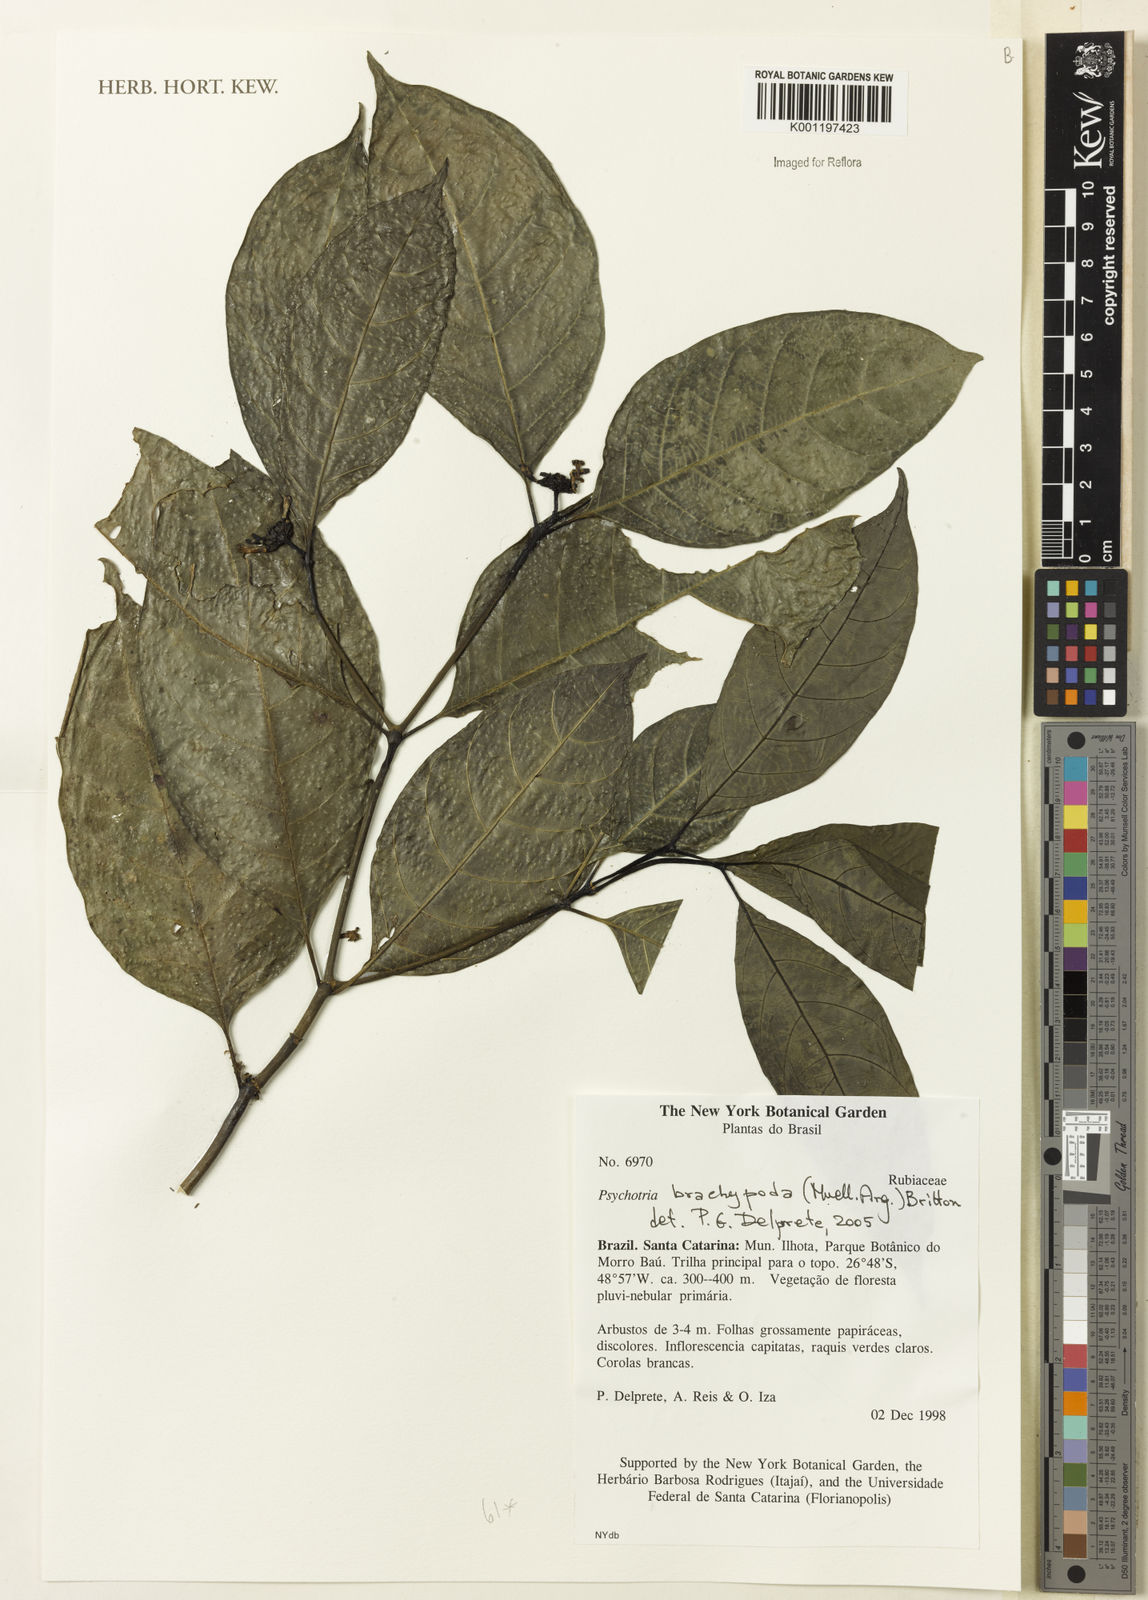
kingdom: Plantae
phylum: Tracheophyta
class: Magnoliopsida
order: Gentianales
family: Rubiaceae
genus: Psychotria
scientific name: Psychotria
